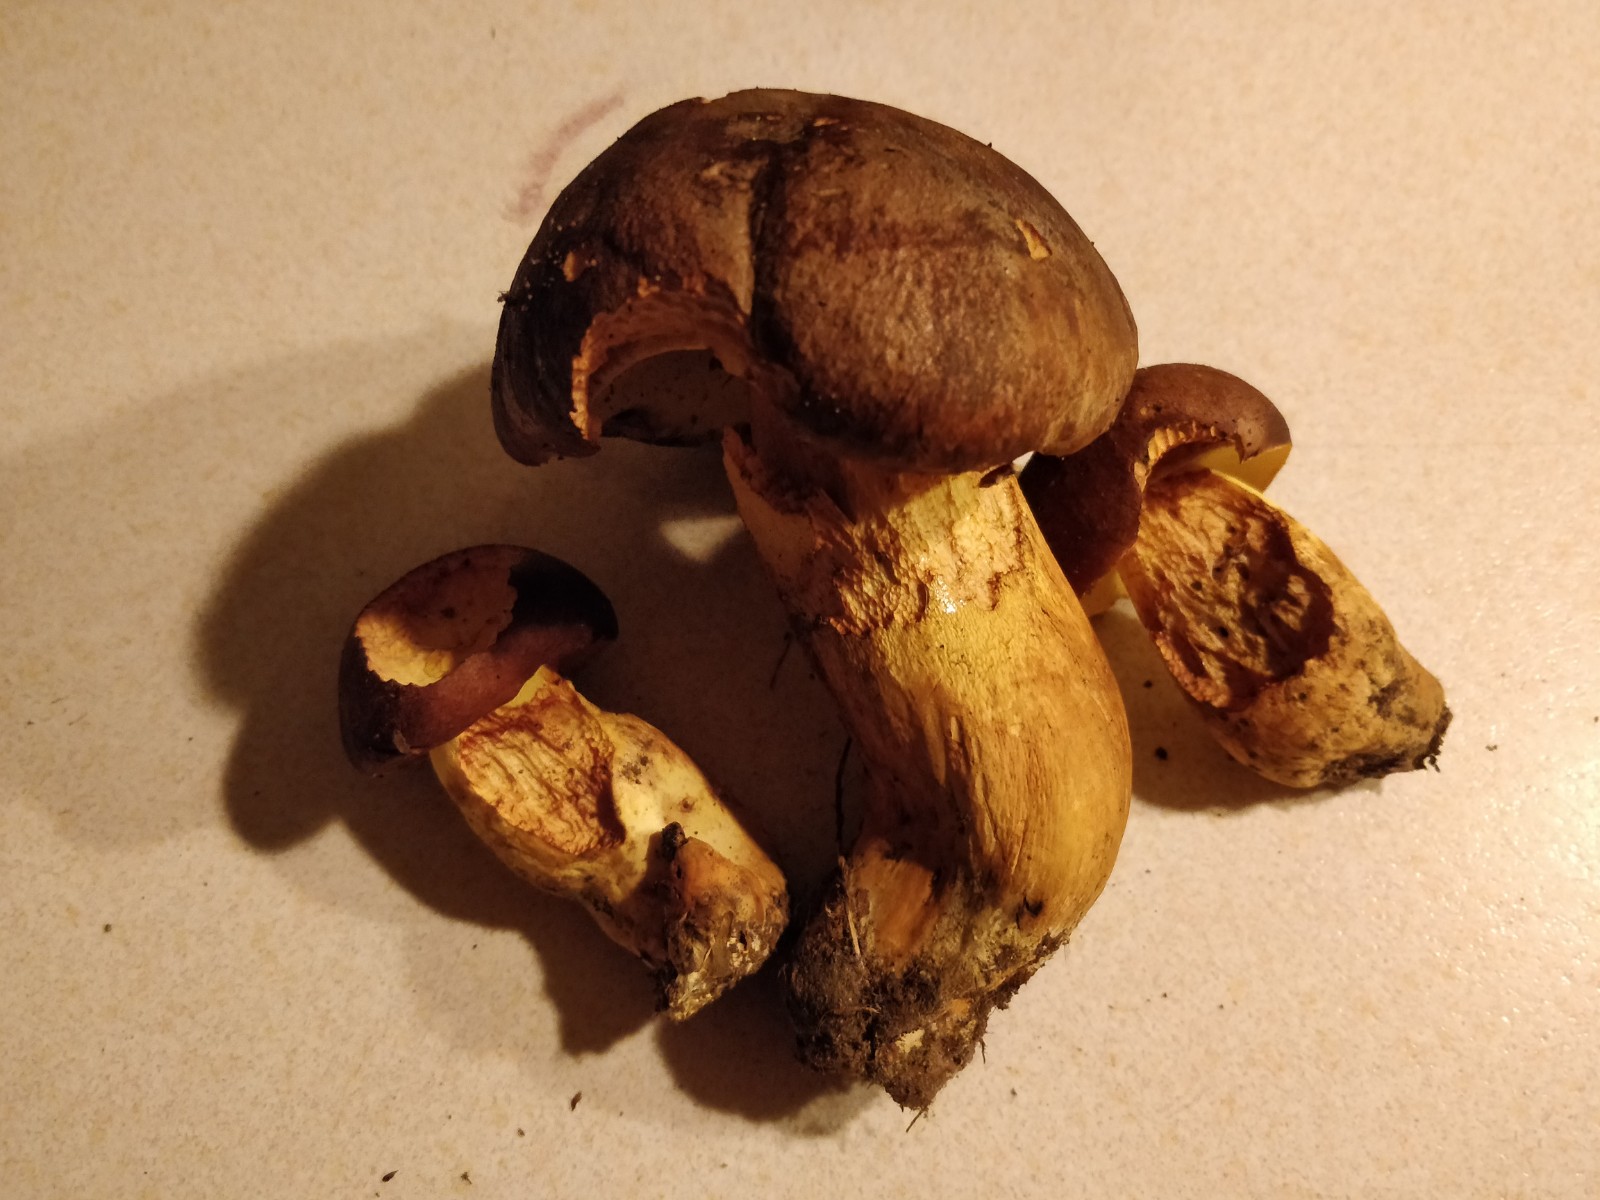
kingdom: Fungi
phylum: Basidiomycota
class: Agaricomycetes
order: Boletales
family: Boletaceae
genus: Butyriboletus
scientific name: Butyriboletus appendiculatus
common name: tenstokket rørhat
